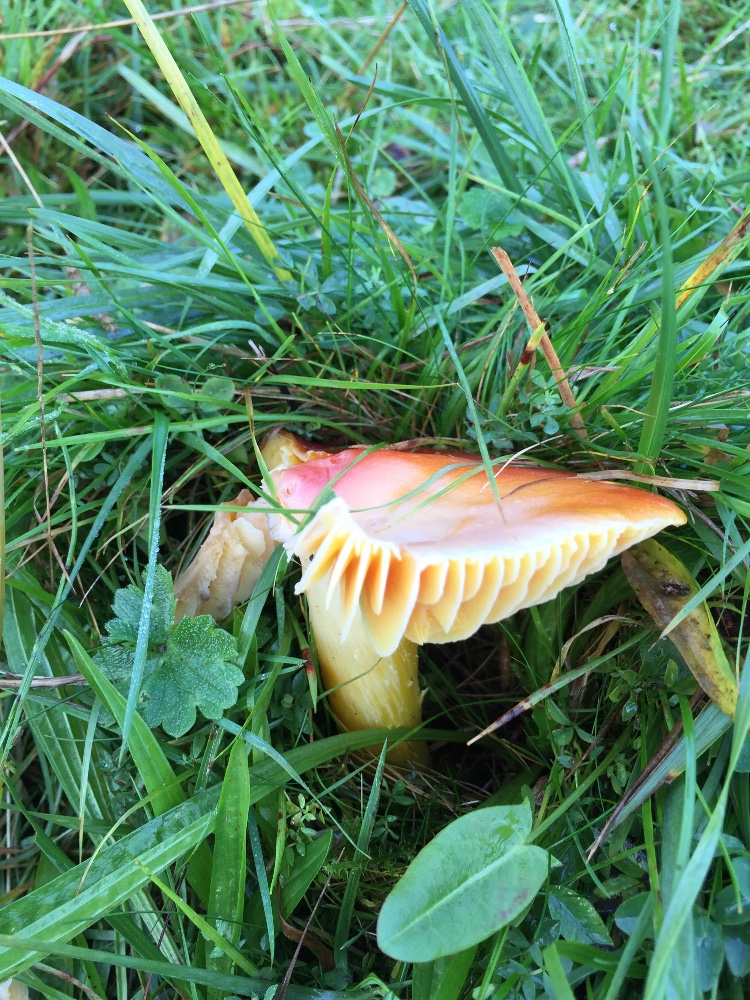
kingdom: Fungi
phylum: Basidiomycota
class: Agaricomycetes
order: Agaricales
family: Hygrophoraceae
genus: Hygrocybe
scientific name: Hygrocybe punicea
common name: skarlagen-vokshat
